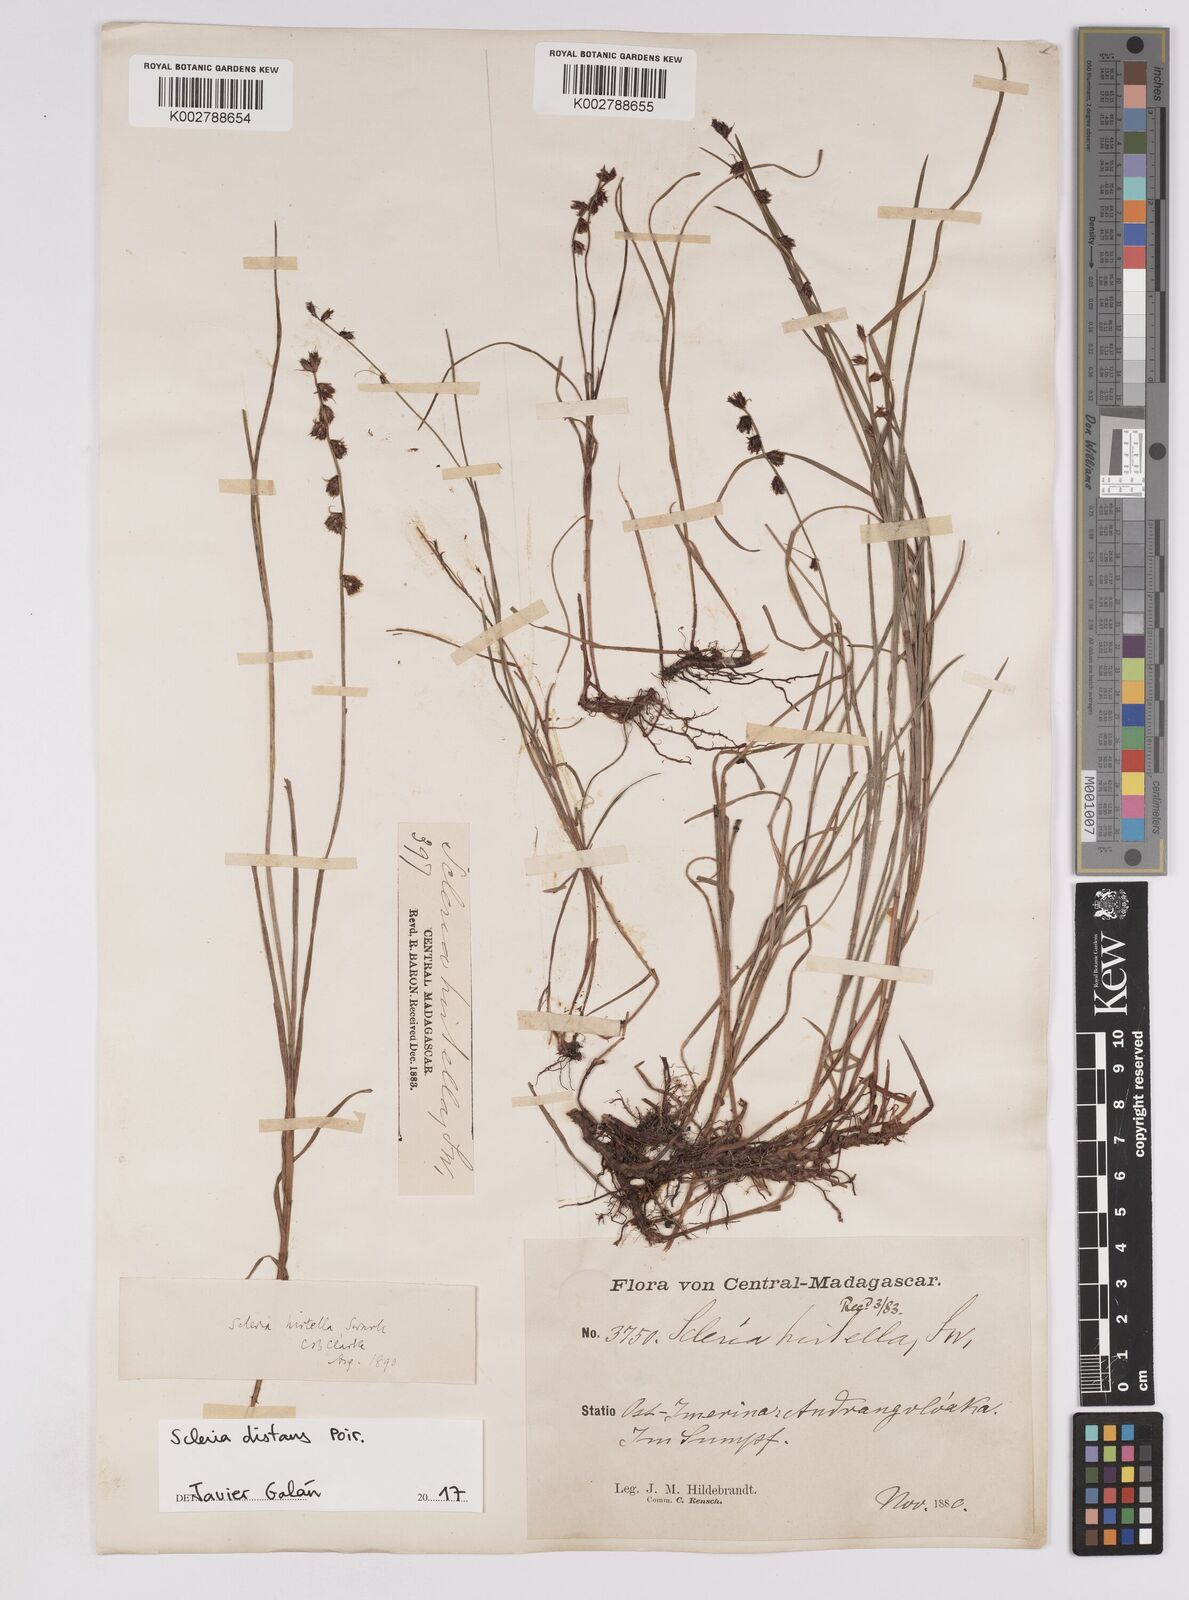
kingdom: Plantae
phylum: Tracheophyta
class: Liliopsida
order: Poales
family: Cyperaceae
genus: Scleria
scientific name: Scleria distans
